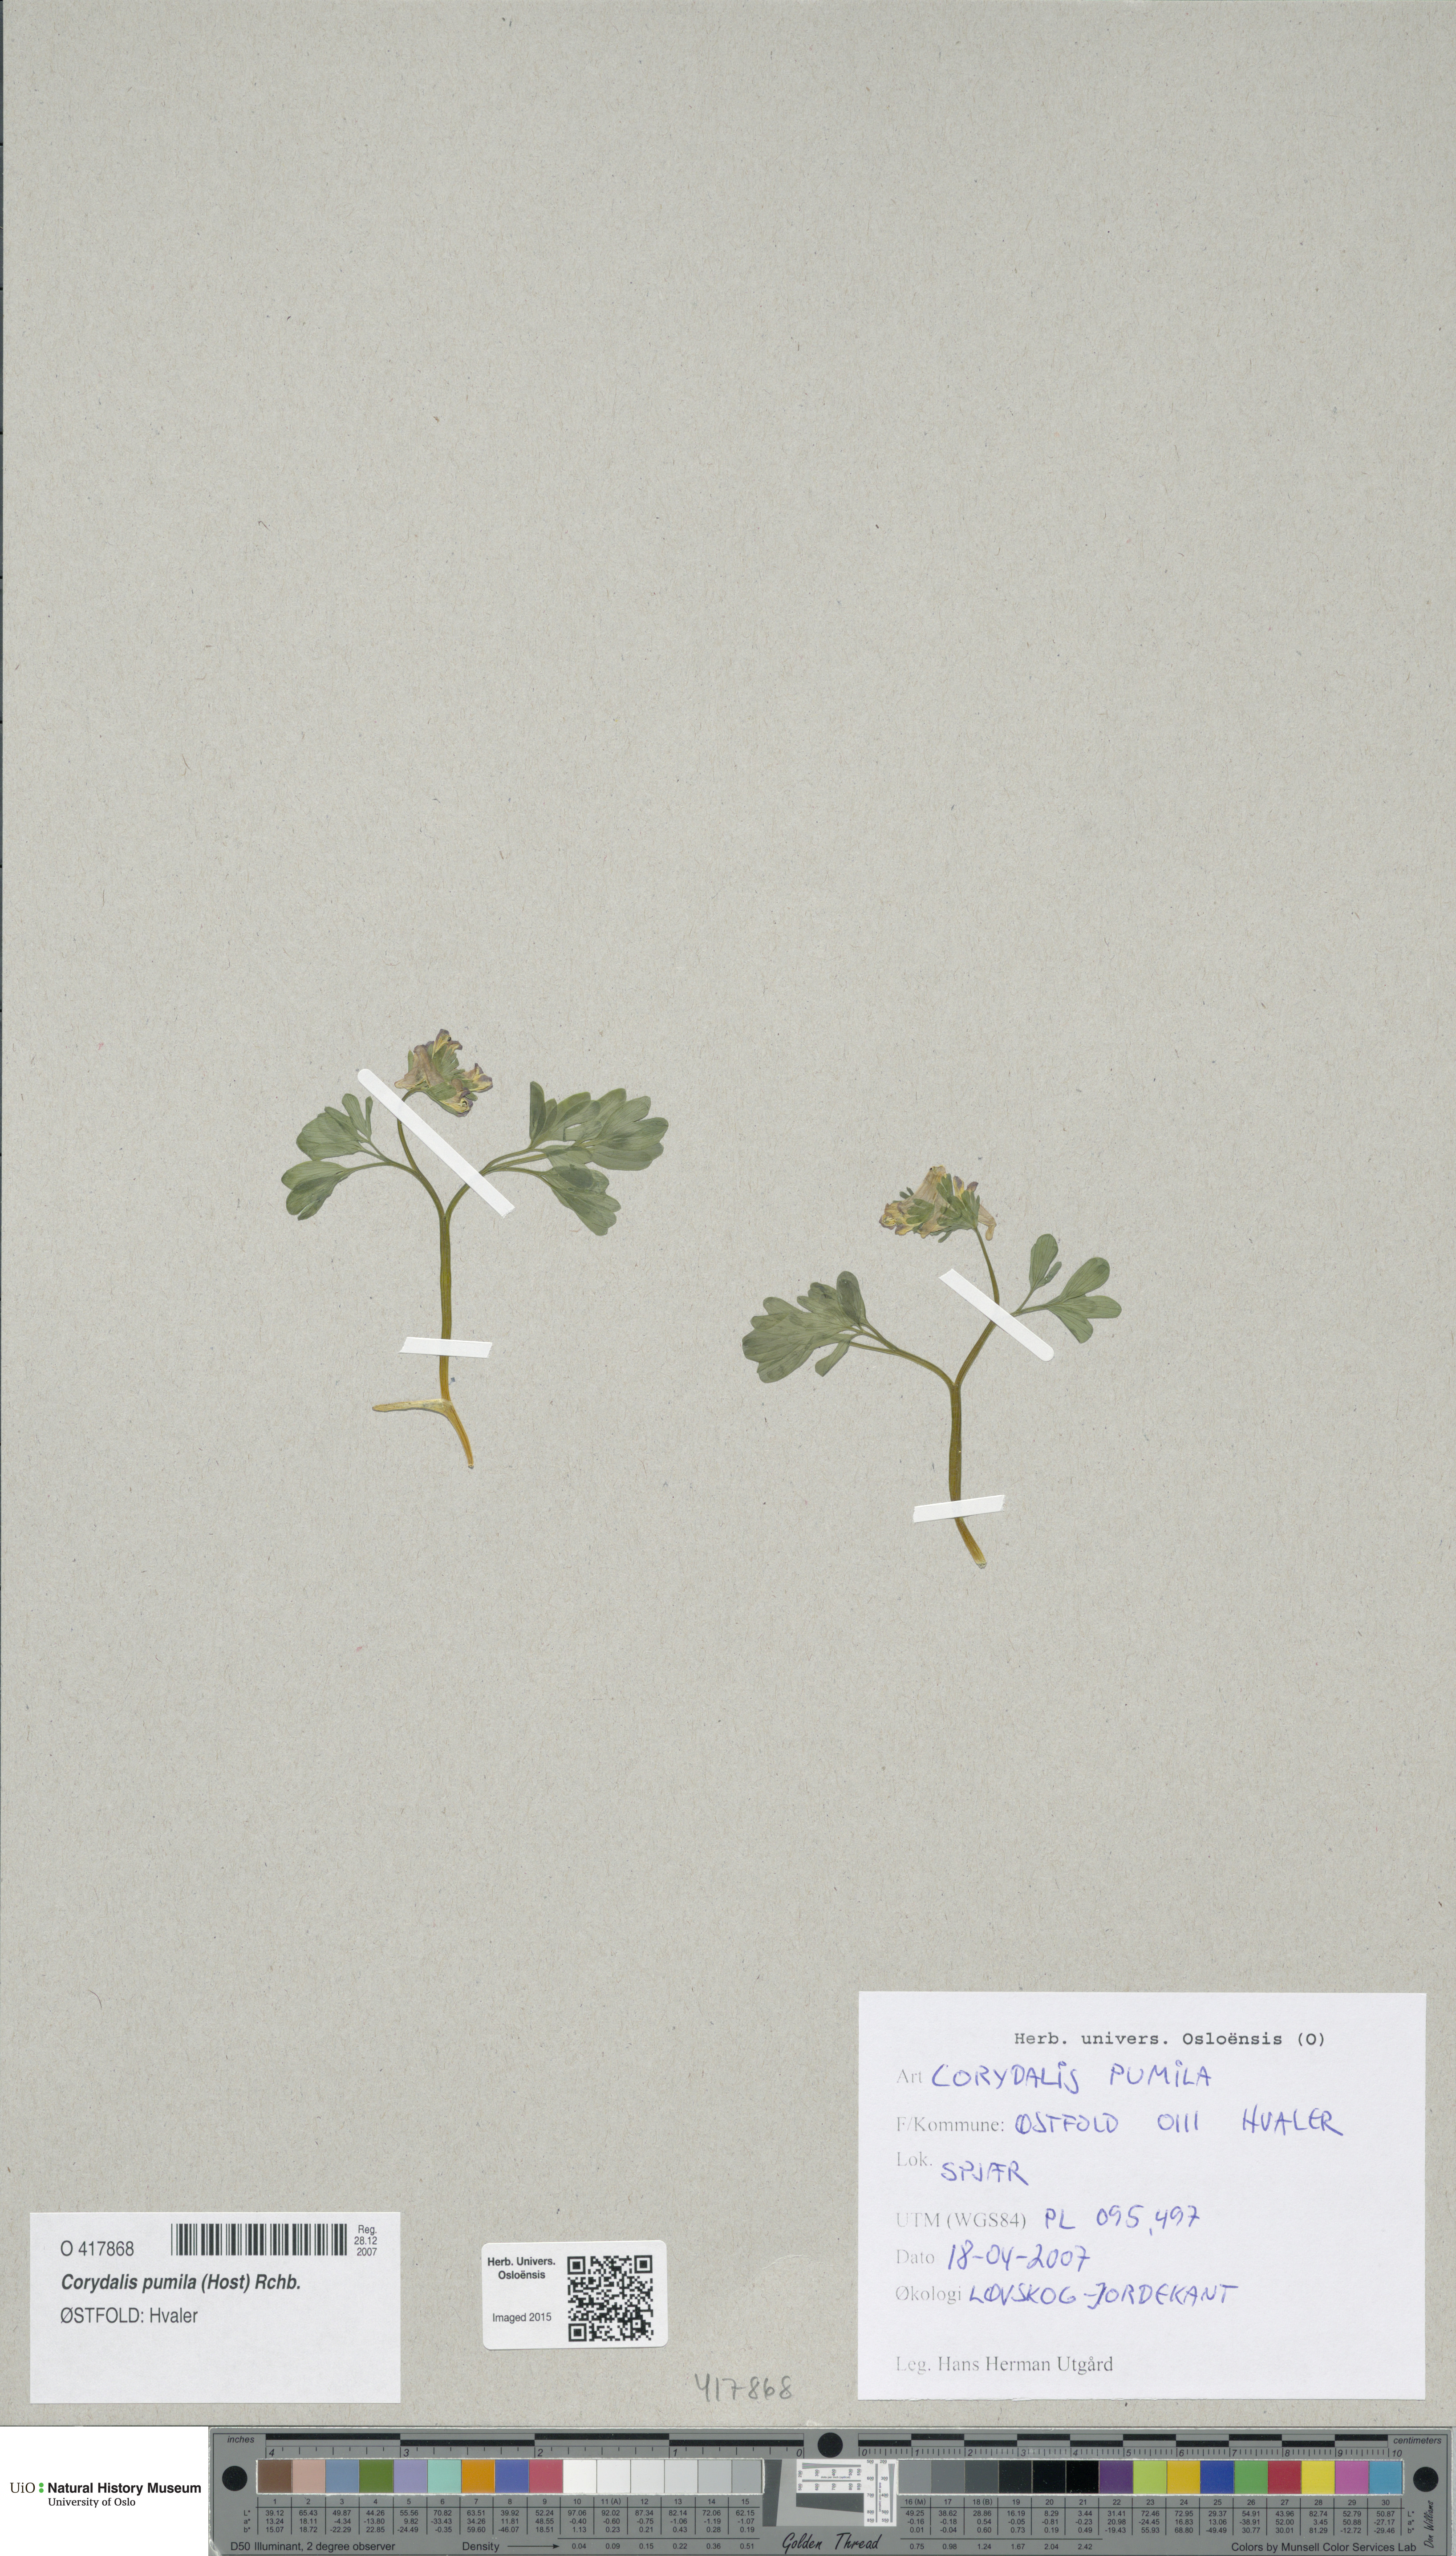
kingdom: Plantae
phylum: Tracheophyta
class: Magnoliopsida
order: Ranunculales
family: Papaveraceae
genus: Corydalis
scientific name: Corydalis pumila
